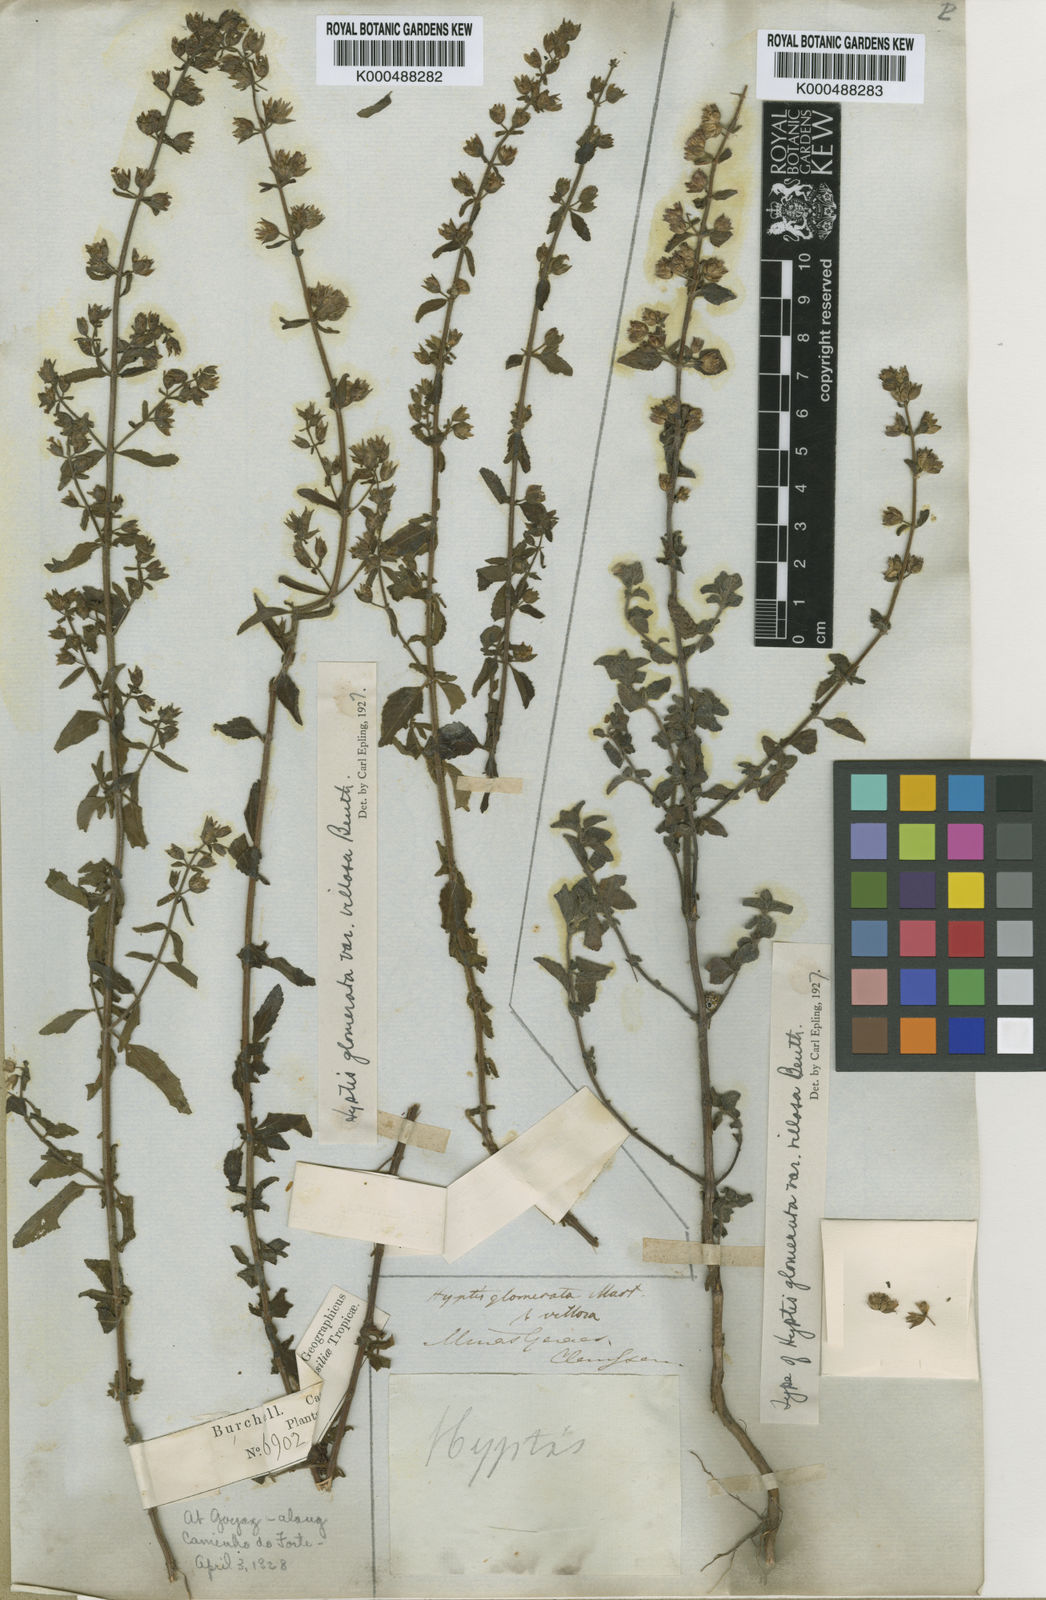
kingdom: Plantae
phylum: Tracheophyta
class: Magnoliopsida
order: Lamiales
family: Lamiaceae
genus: Oocephalus
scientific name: Oocephalus oppositiflorus
